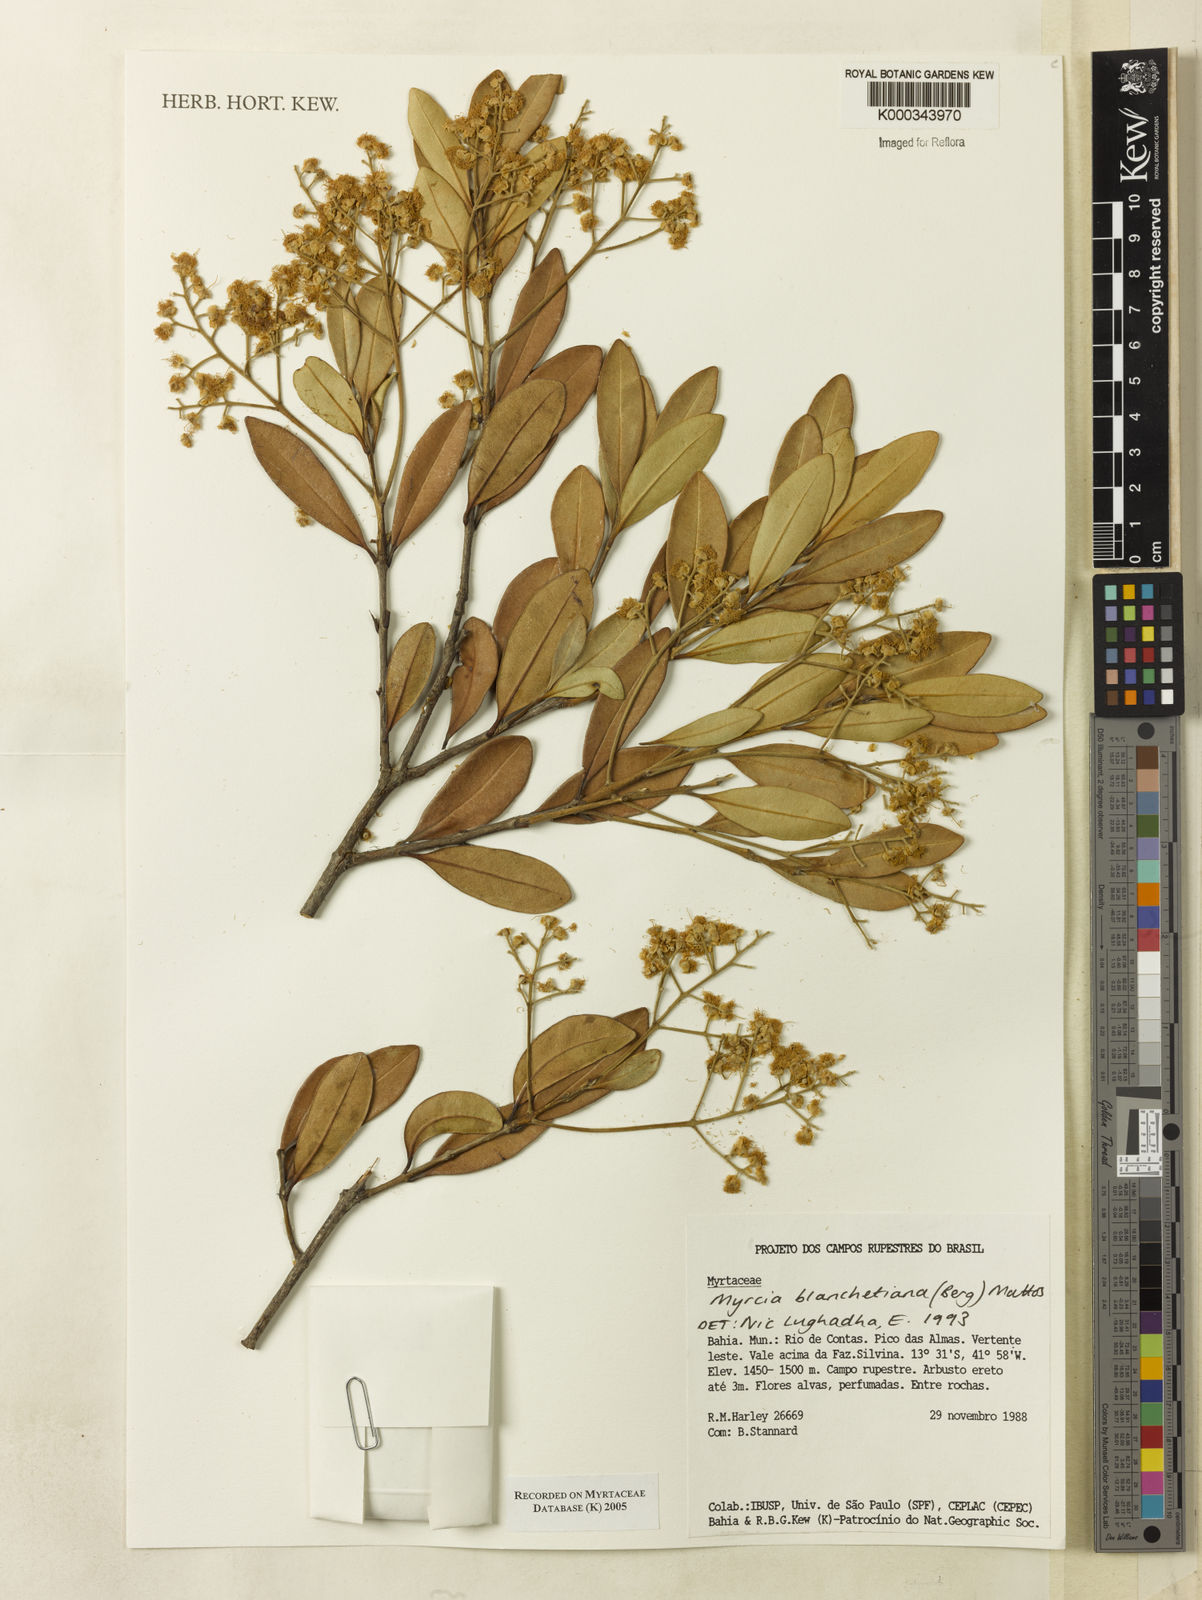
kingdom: Plantae
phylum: Tracheophyta
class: Magnoliopsida
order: Myrtales
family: Myrtaceae
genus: Myrcia
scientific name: Myrcia blanchetiana
